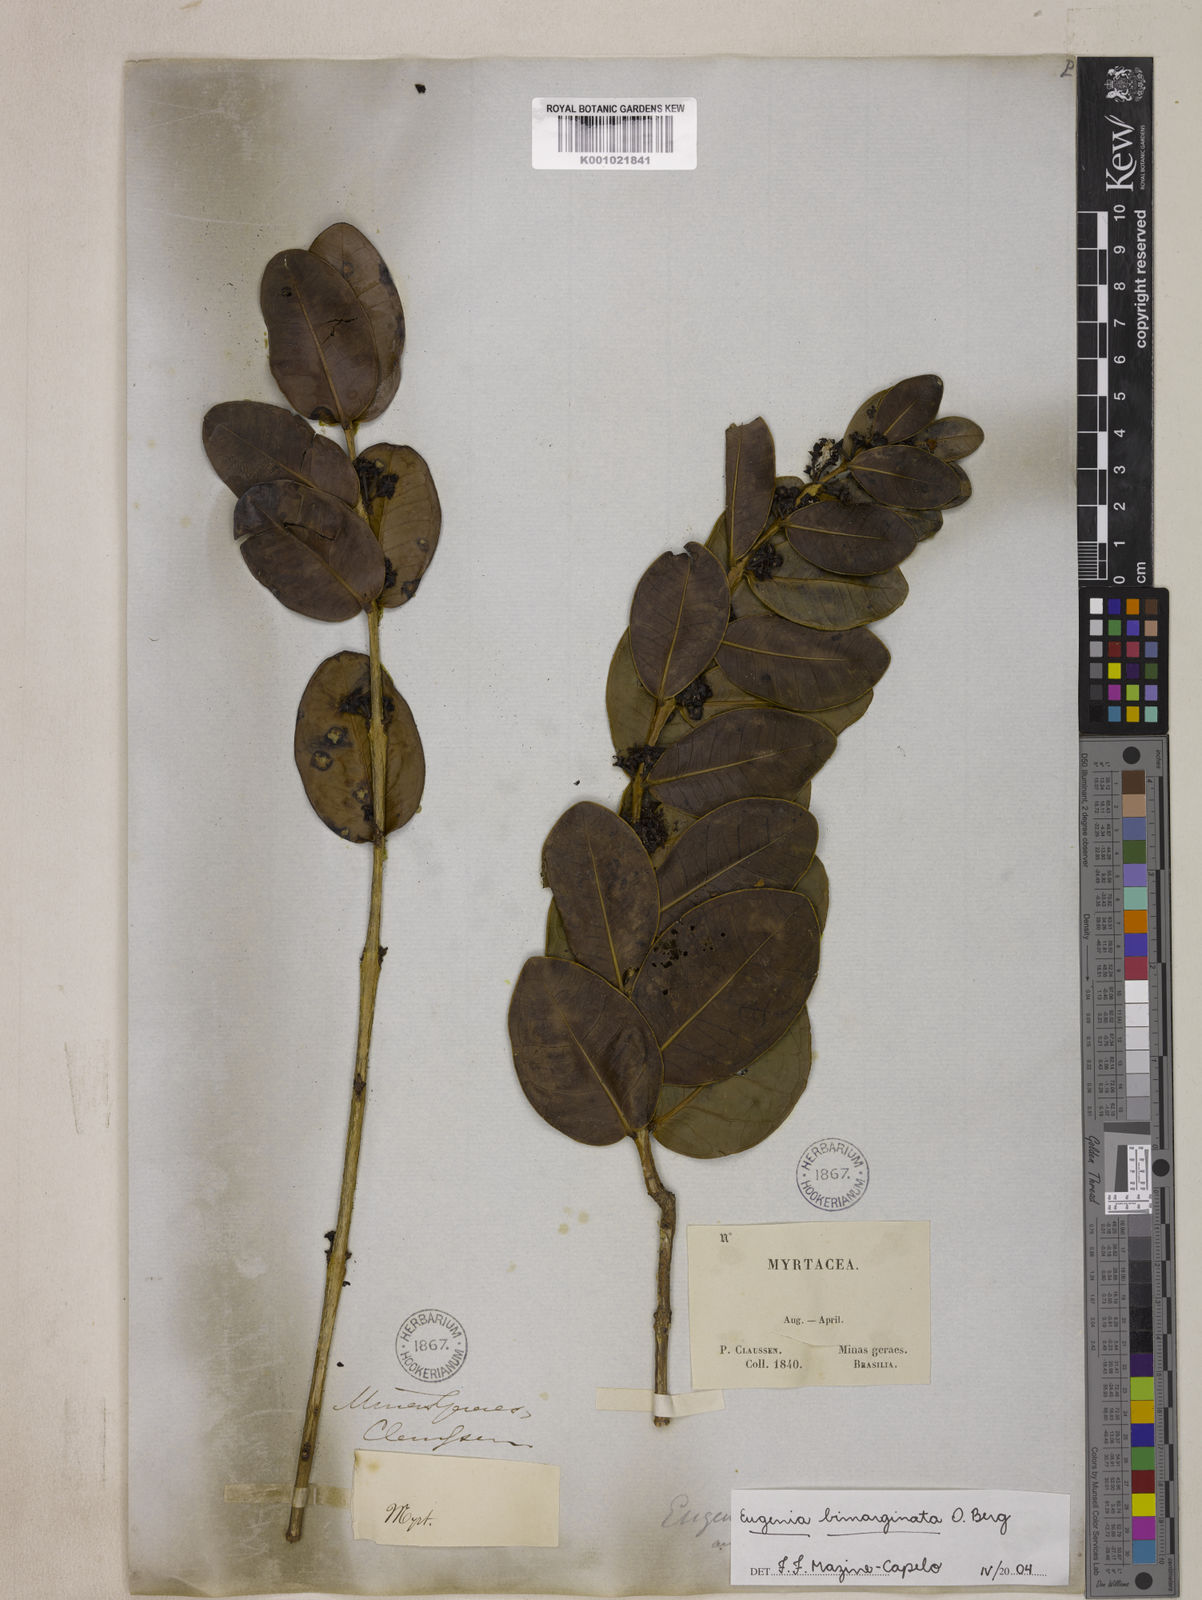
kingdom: Plantae
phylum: Tracheophyta
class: Magnoliopsida
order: Myrtales
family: Myrtaceae
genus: Eugenia
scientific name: Eugenia bimarginata
